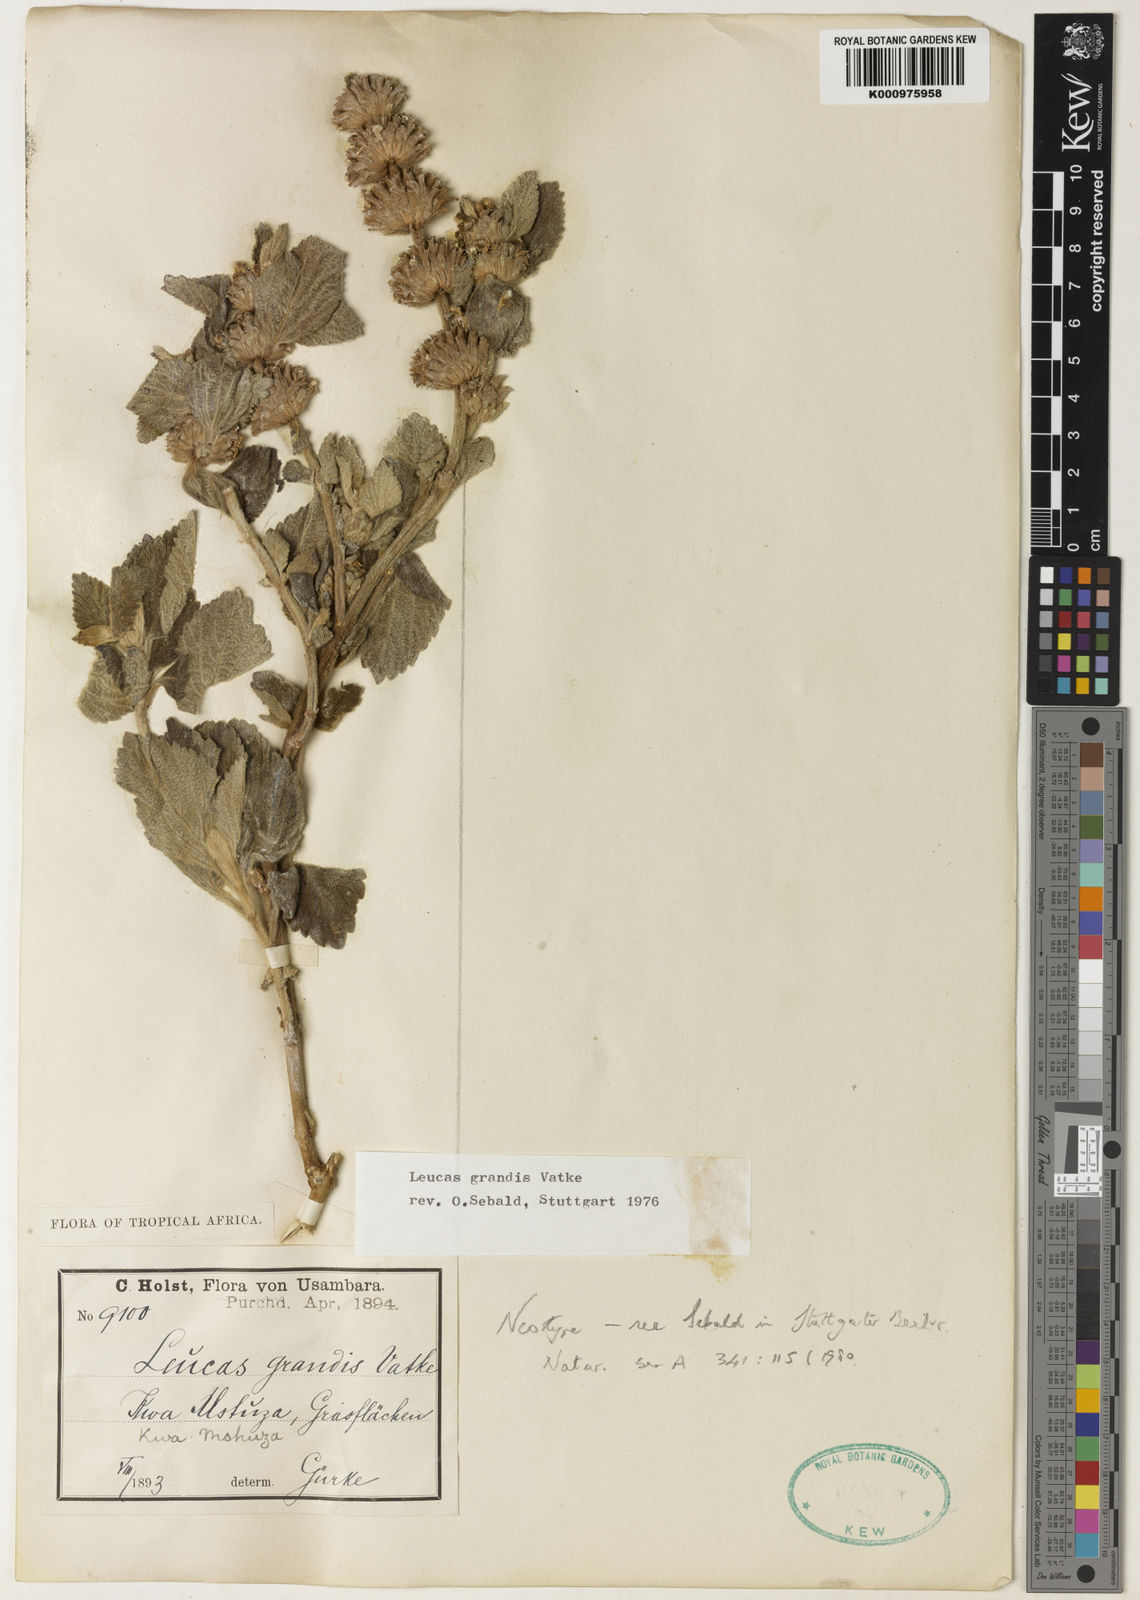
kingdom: Plantae
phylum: Tracheophyta
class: Magnoliopsida
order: Lamiales
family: Lamiaceae
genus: Leucas
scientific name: Leucas grandis
